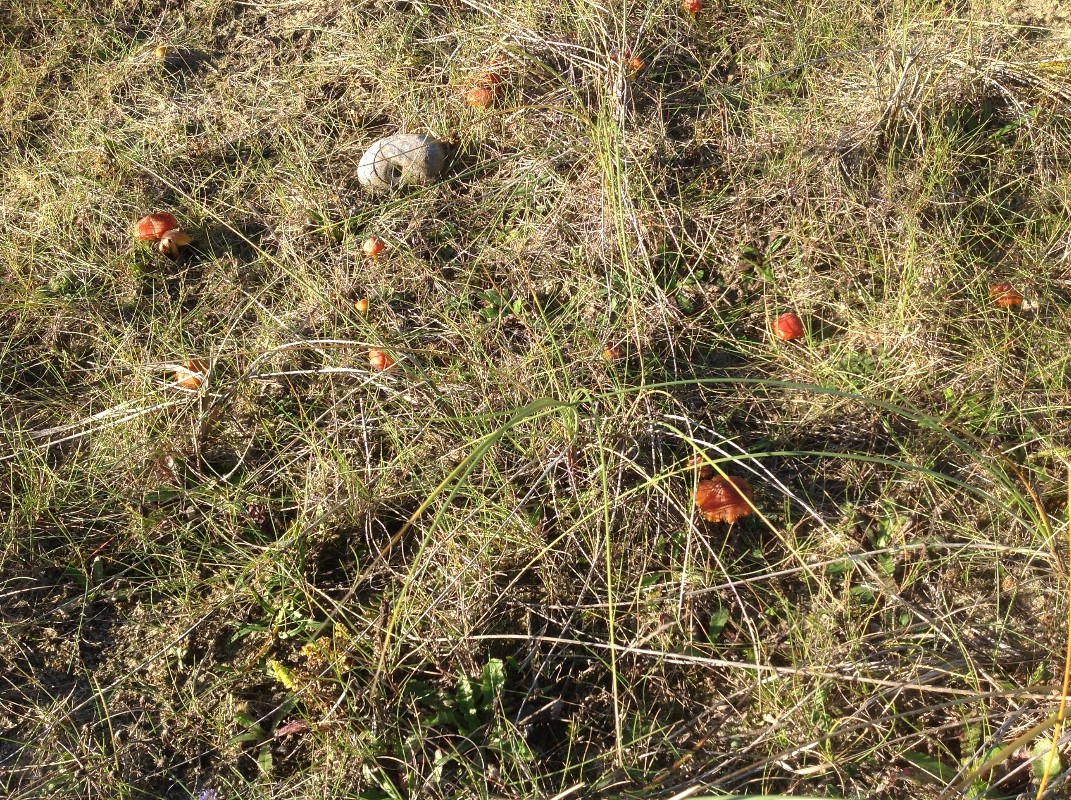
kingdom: Fungi
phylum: Basidiomycota
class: Agaricomycetes
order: Agaricales
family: Hygrophoraceae
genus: Hygrocybe
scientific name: Hygrocybe
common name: vokshat
